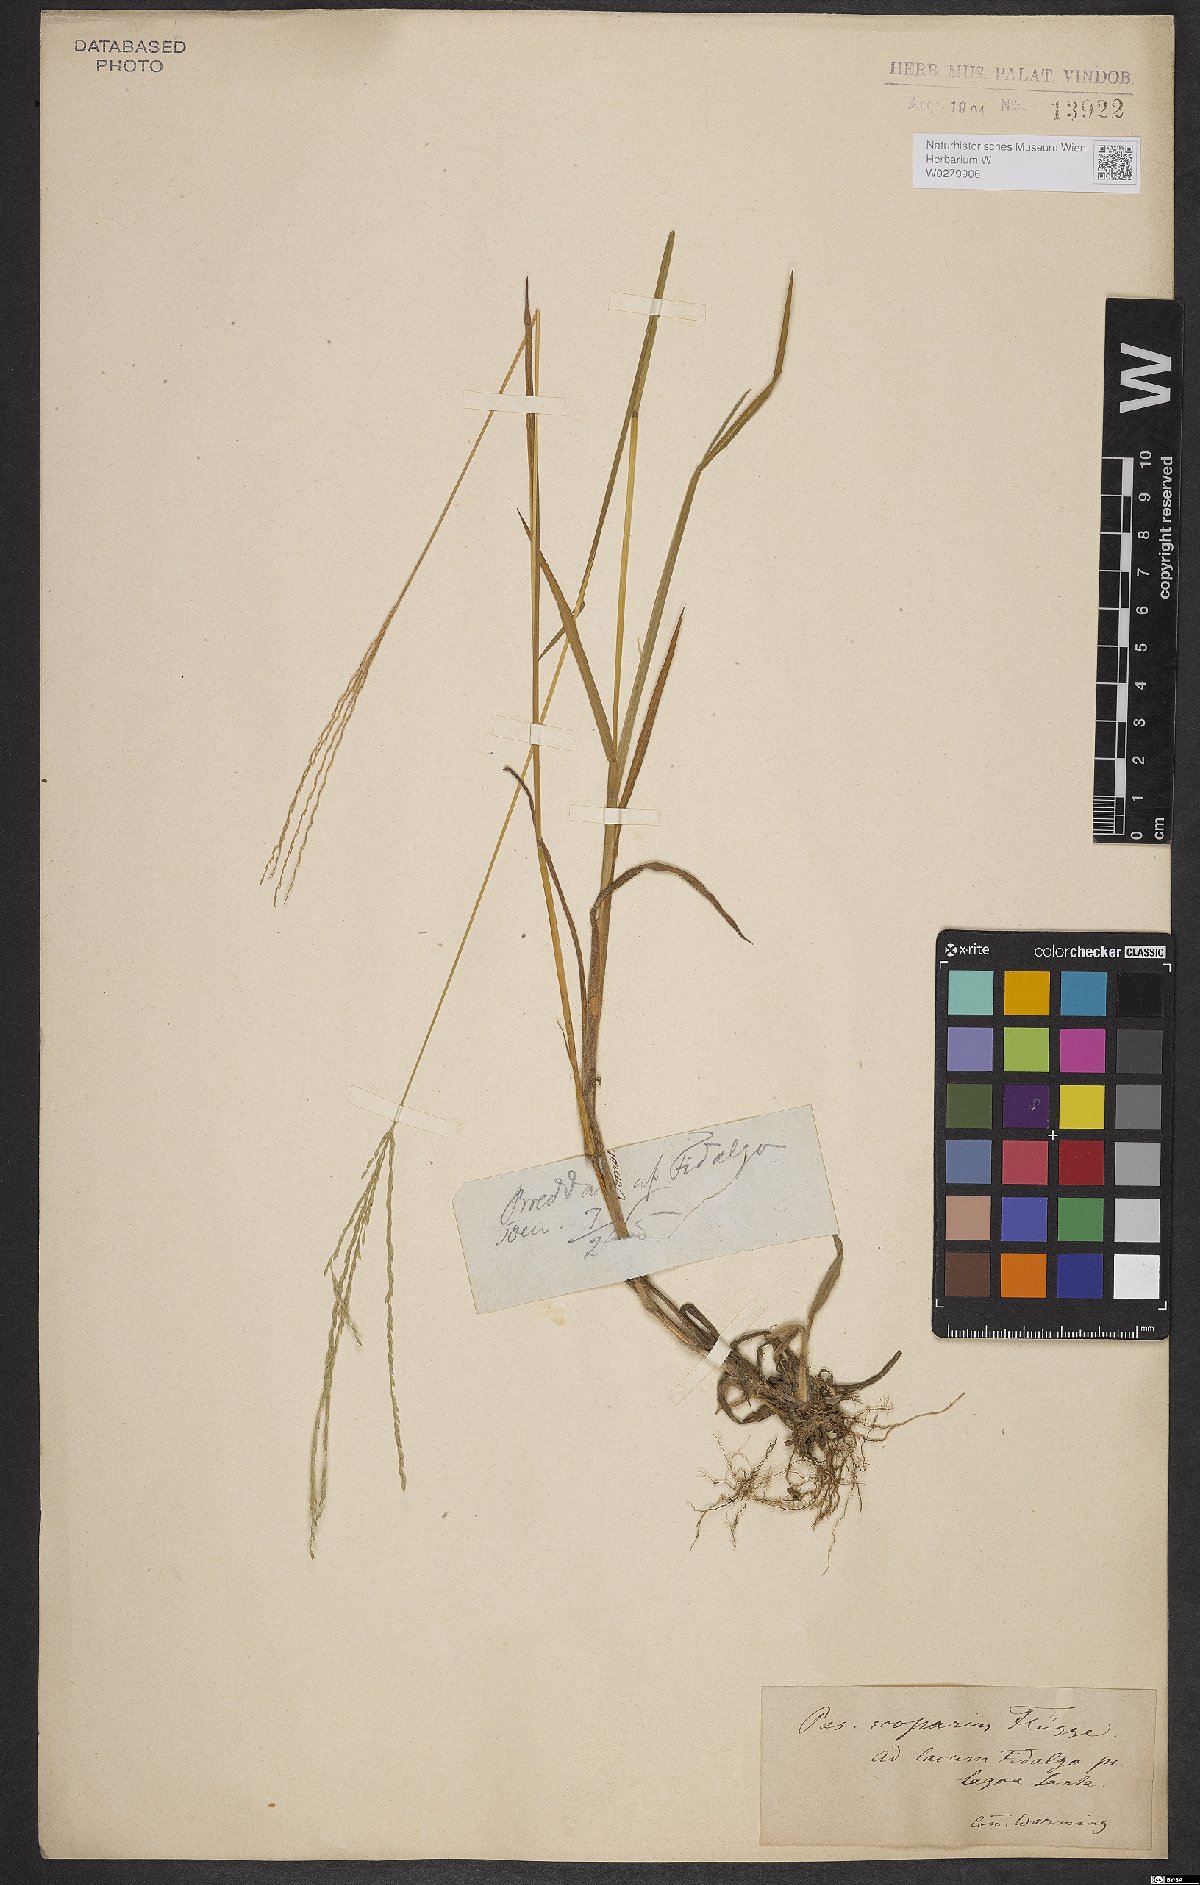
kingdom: Plantae
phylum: Tracheophyta
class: Liliopsida
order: Poales
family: Poaceae
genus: Axonopus
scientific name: Axonopus scoparius
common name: Imperial grass
